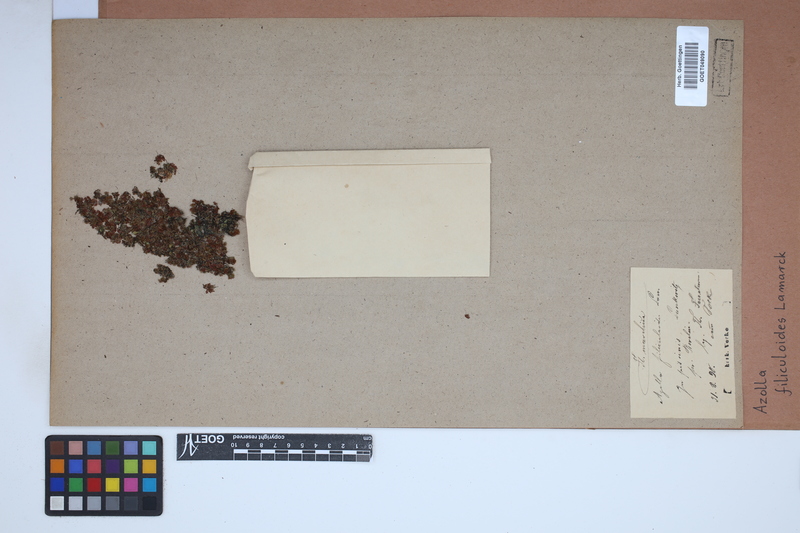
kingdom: Plantae
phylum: Tracheophyta
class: Polypodiopsida
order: Salviniales
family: Salviniaceae
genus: Azolla
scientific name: Azolla filiculoides
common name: Water fern
